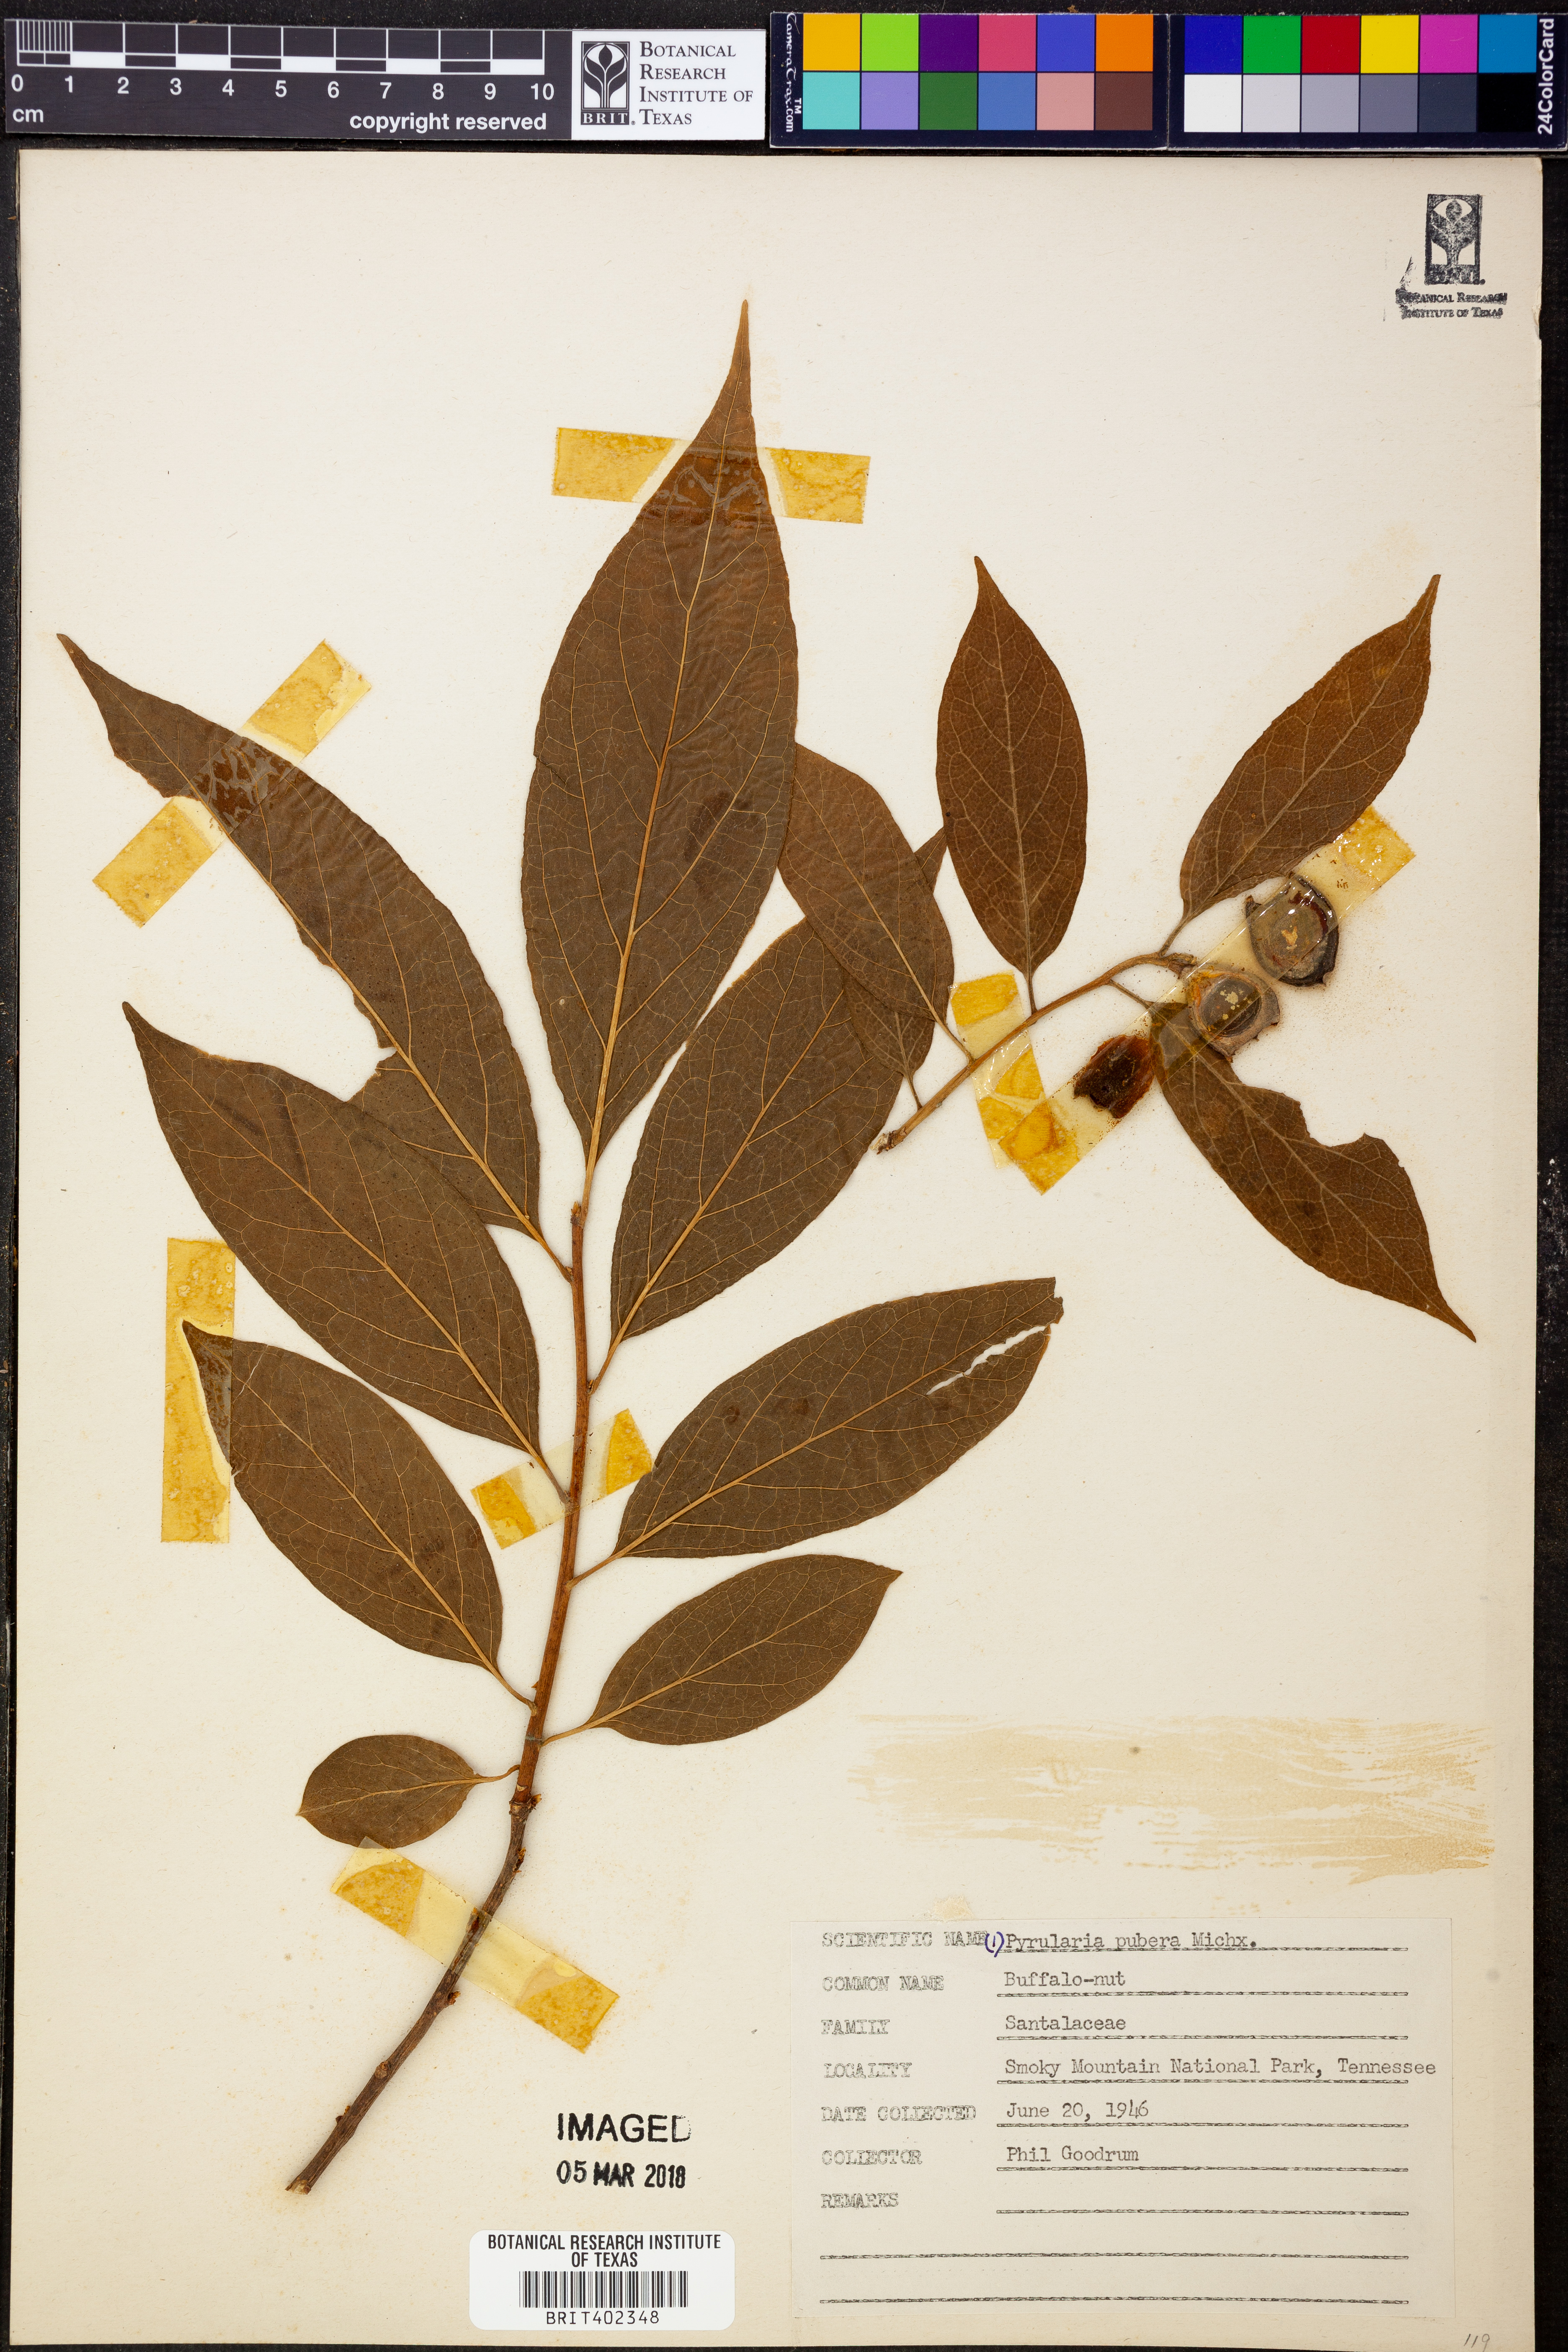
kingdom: Plantae
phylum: Tracheophyta
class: Magnoliopsida
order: Santalales
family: Cervantesiaceae
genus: Pyrularia
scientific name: Pyrularia pubera
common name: Oilnut
